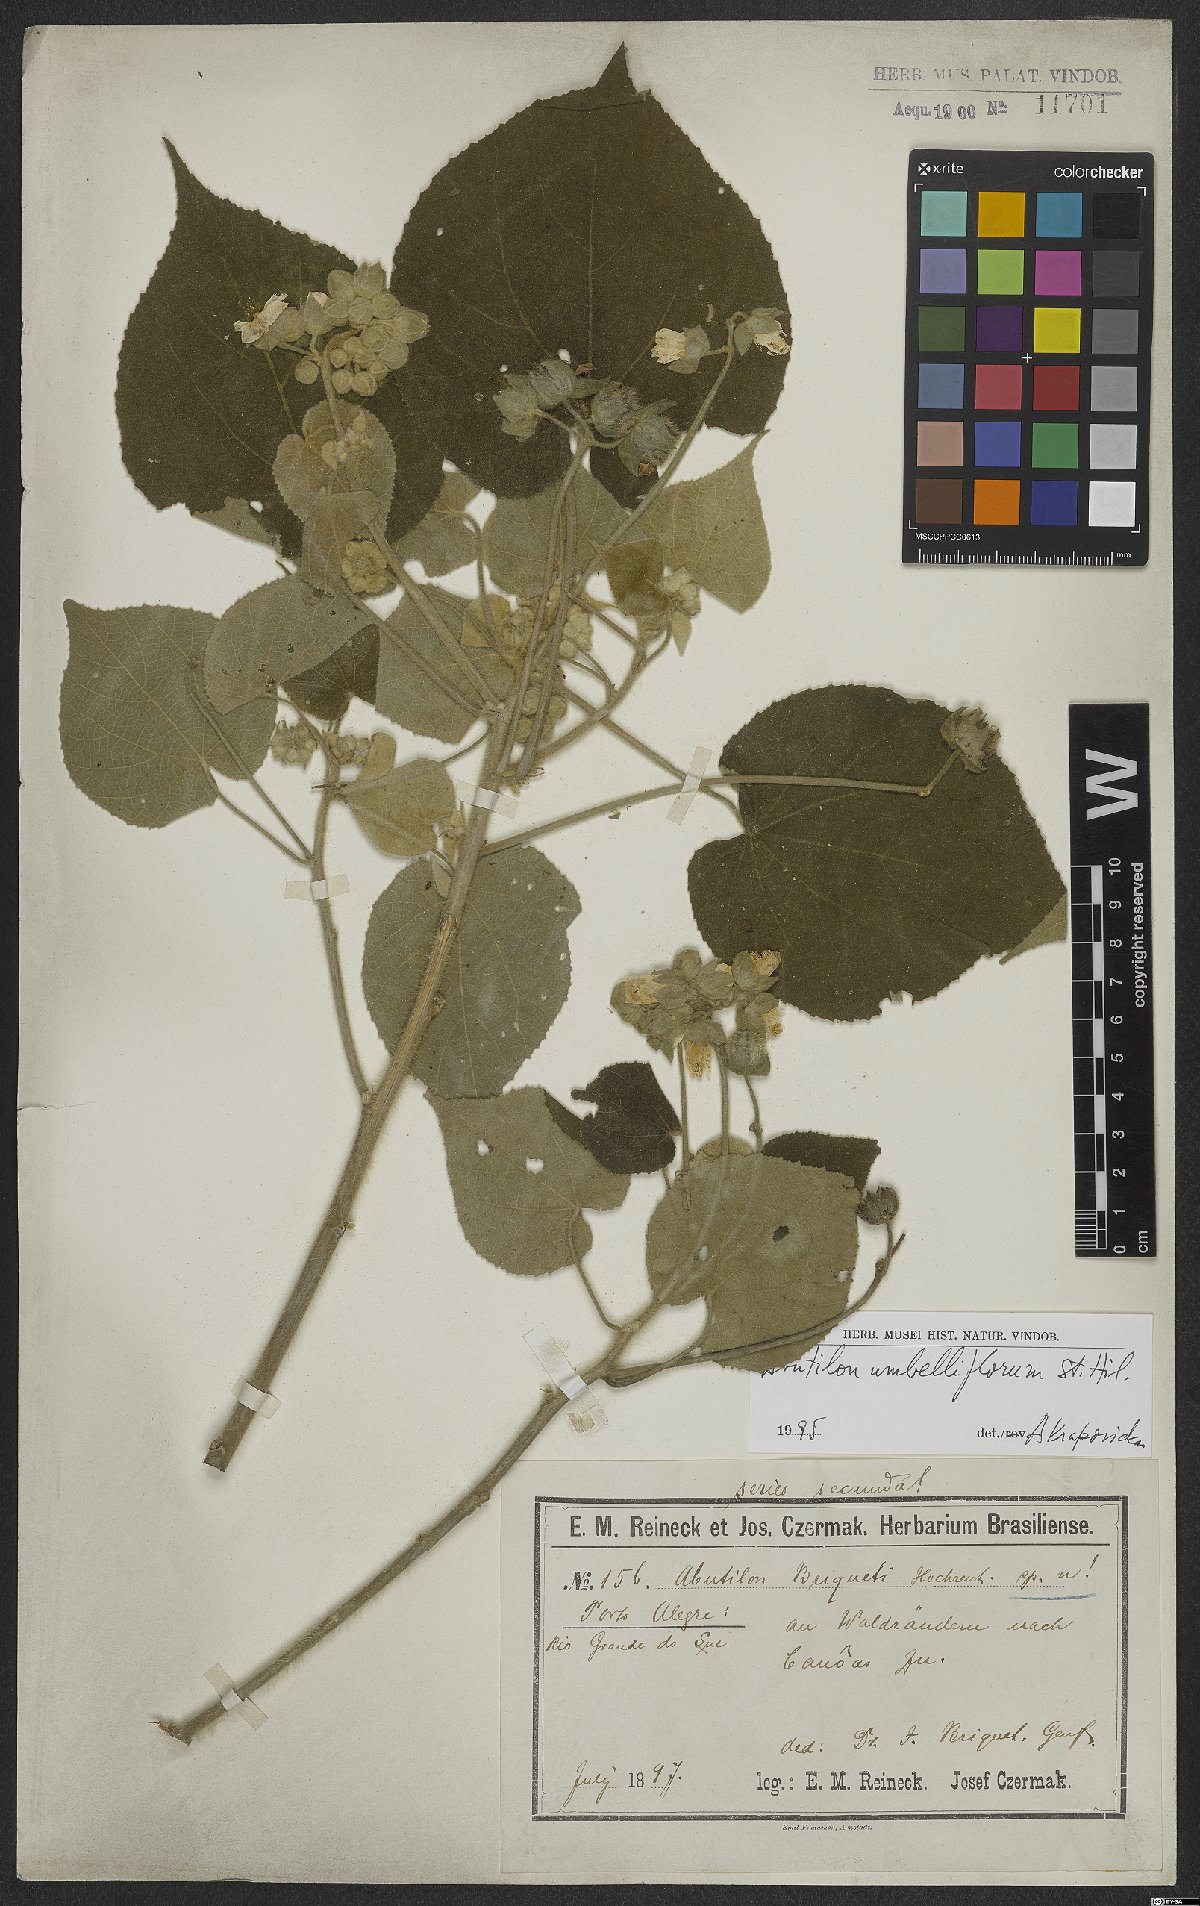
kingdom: Plantae
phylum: Tracheophyta
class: Magnoliopsida
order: Malvales
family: Malvaceae
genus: Abutilon
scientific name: Abutilon umbelliflorum
